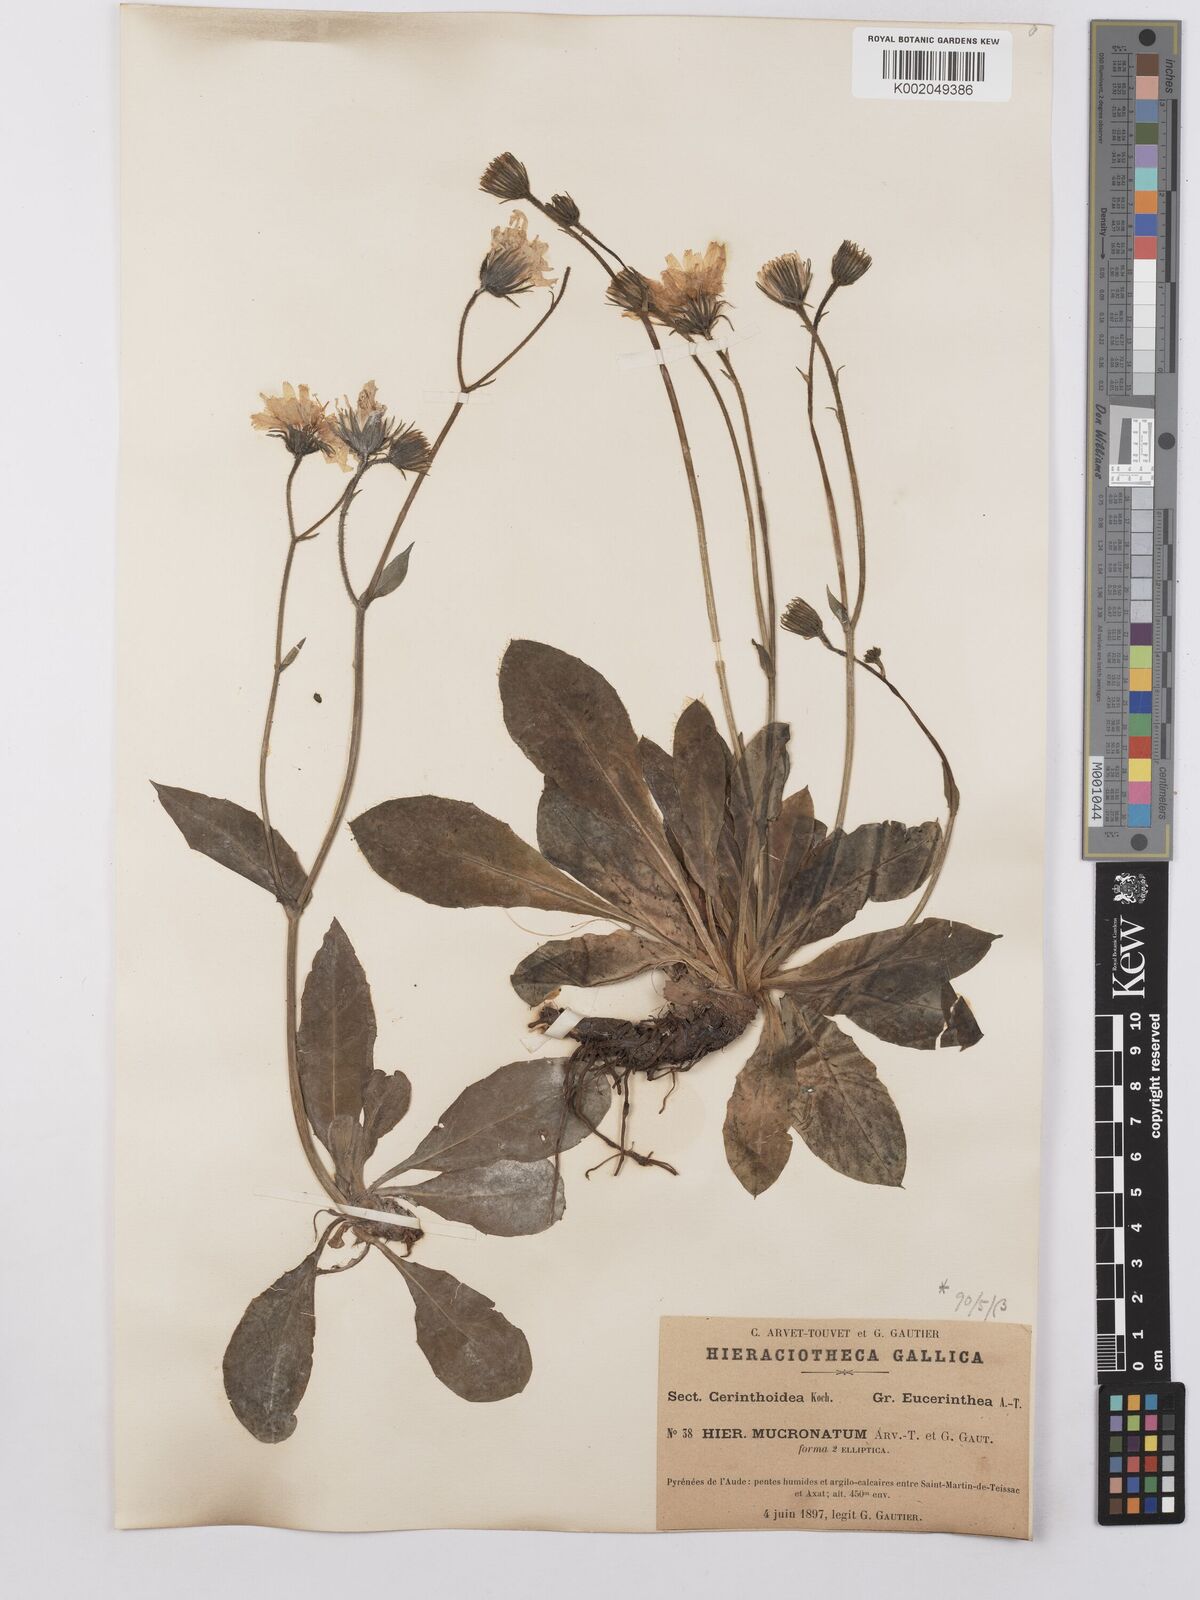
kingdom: Plantae
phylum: Tracheophyta
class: Magnoliopsida
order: Asterales
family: Asteraceae
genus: Hieracium
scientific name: Hieracium mucronatum
